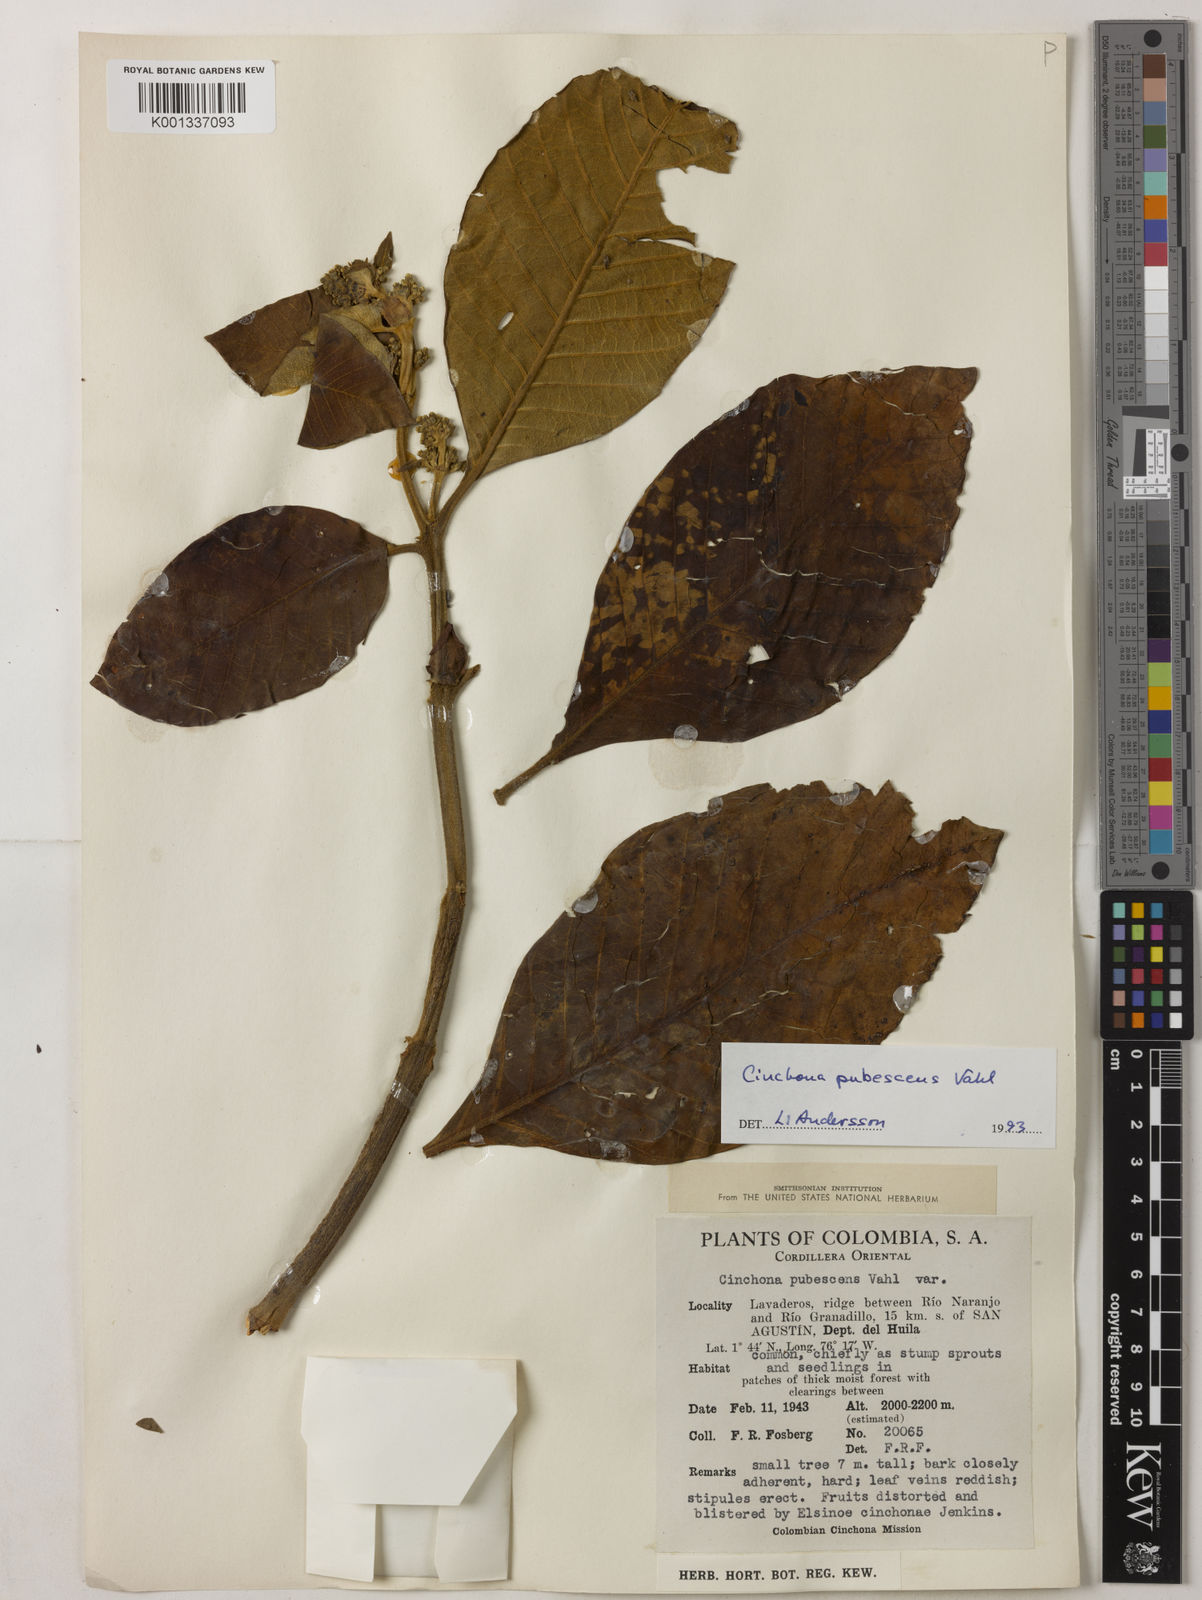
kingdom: Plantae
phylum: Tracheophyta
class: Magnoliopsida
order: Gentianales
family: Rubiaceae
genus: Cinchona
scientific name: Cinchona pubescens
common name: Quinine
